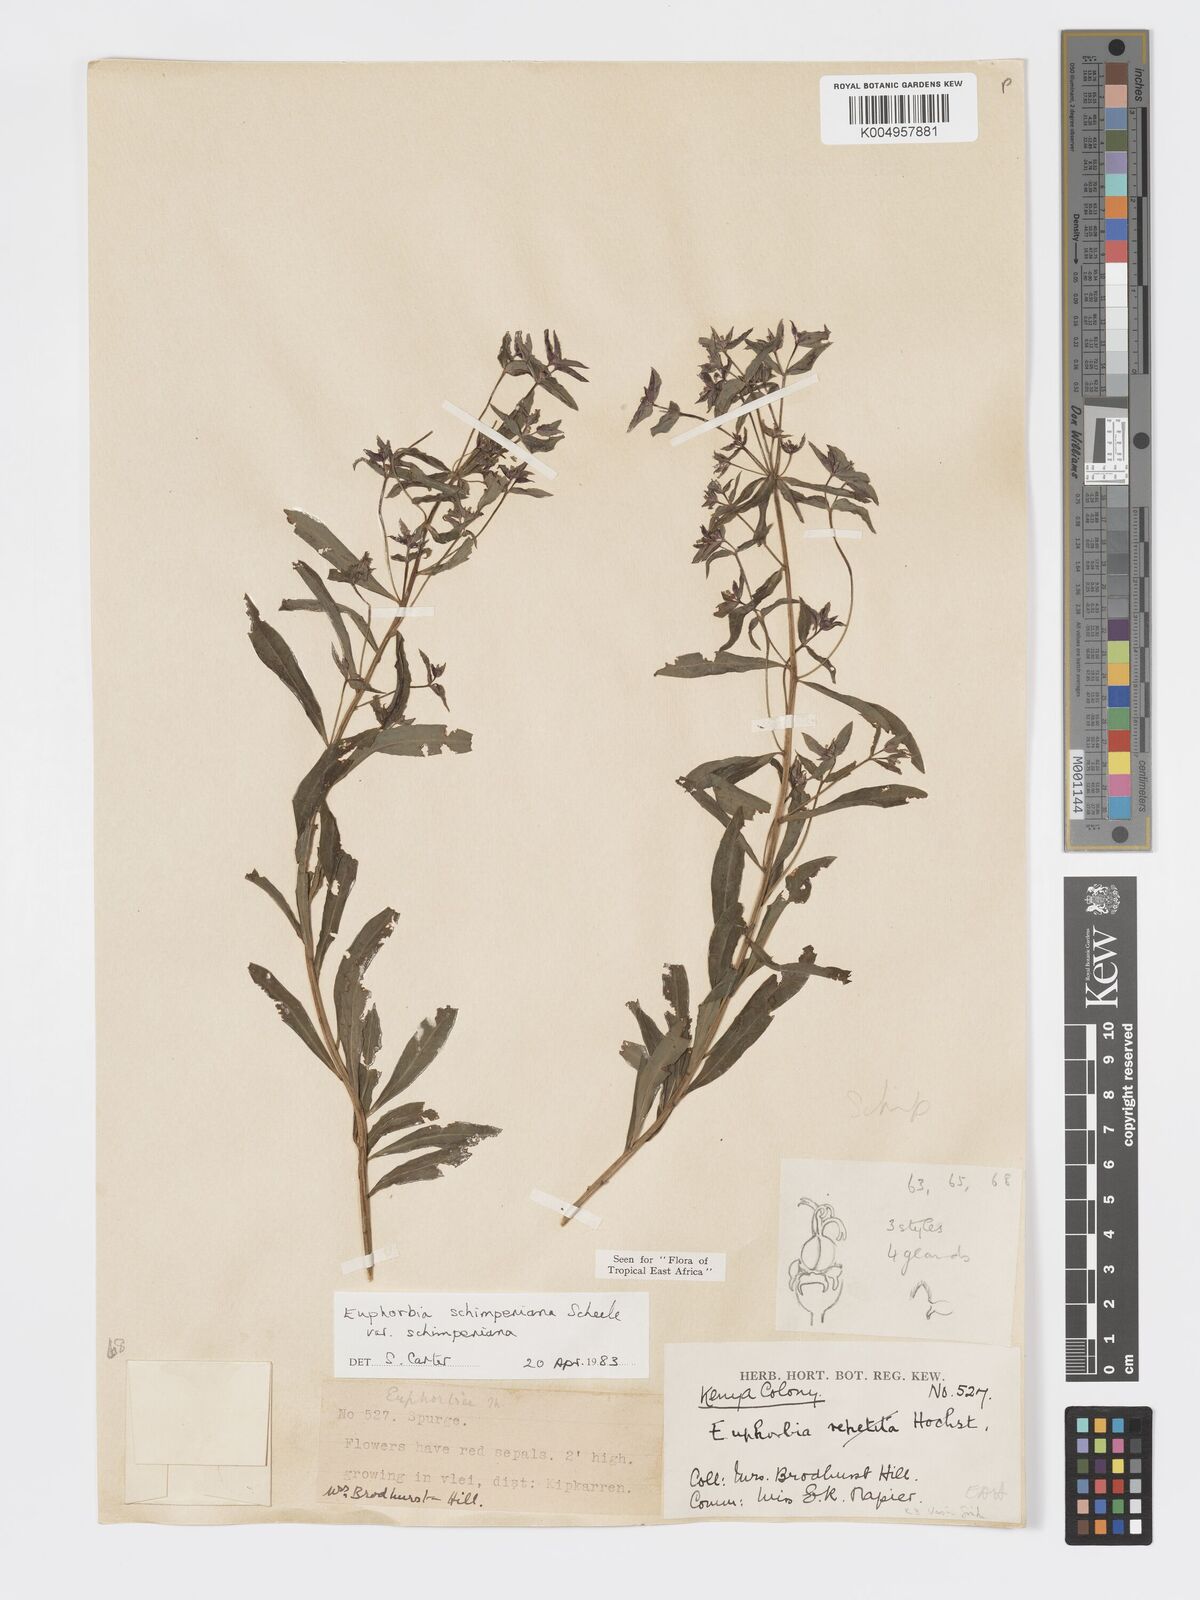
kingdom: Plantae
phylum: Tracheophyta
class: Magnoliopsida
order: Malpighiales
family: Euphorbiaceae
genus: Euphorbia
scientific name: Euphorbia schimperiana
